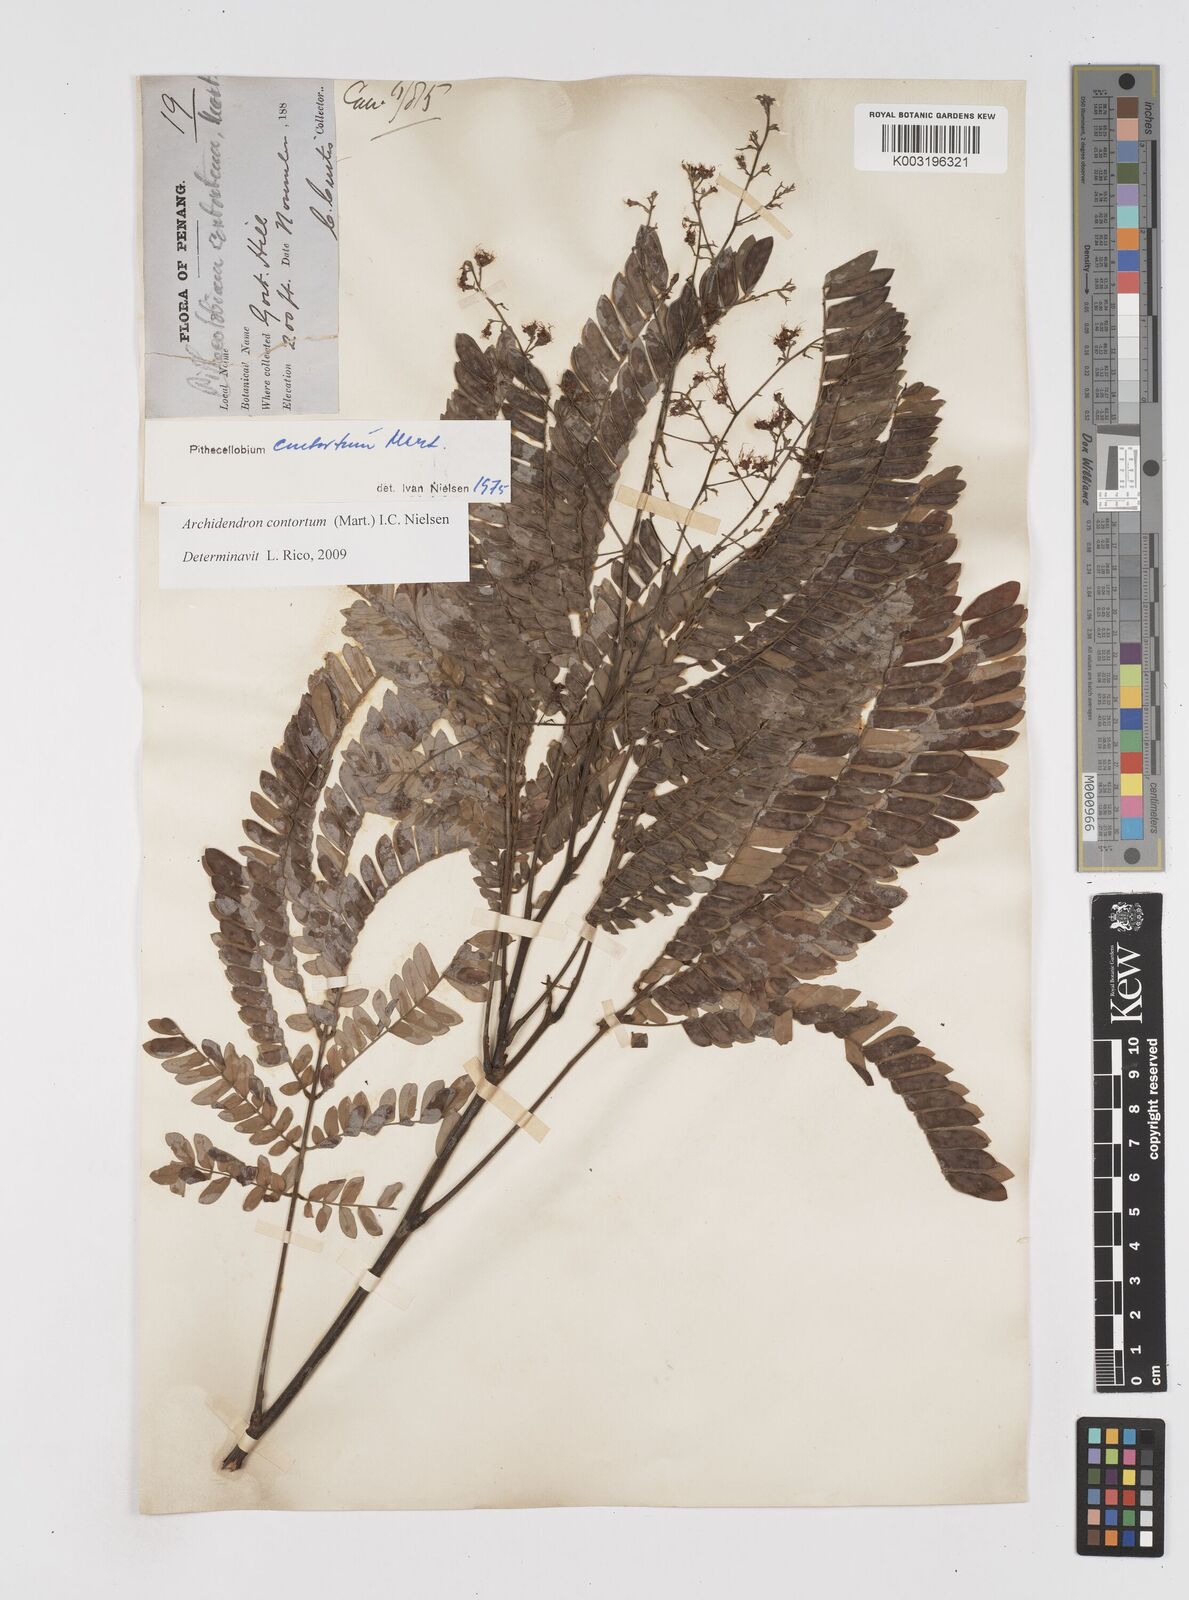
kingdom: Plantae
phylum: Tracheophyta
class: Magnoliopsida
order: Fabales
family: Fabaceae
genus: Archidendron
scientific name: Archidendron contortum
